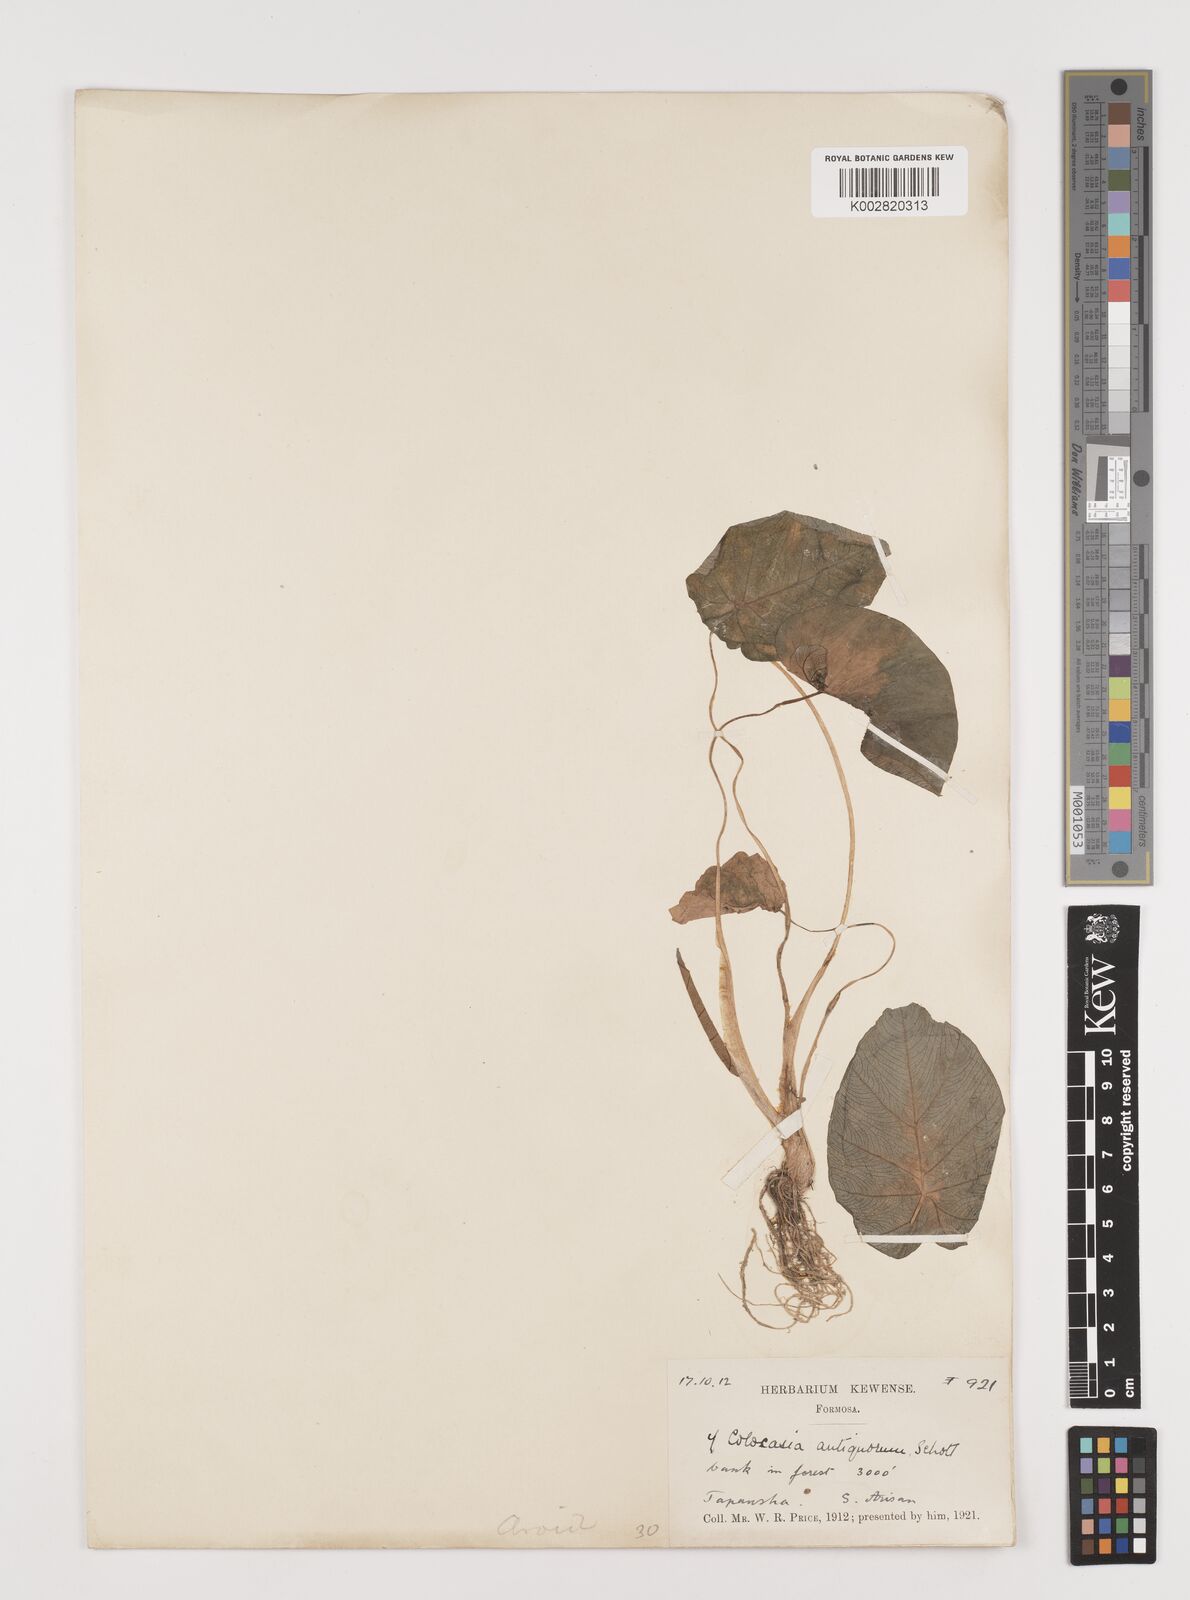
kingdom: Plantae
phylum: Tracheophyta
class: Liliopsida
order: Alismatales
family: Araceae
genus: Colocasia
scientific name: Colocasia esculenta
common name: Taro
